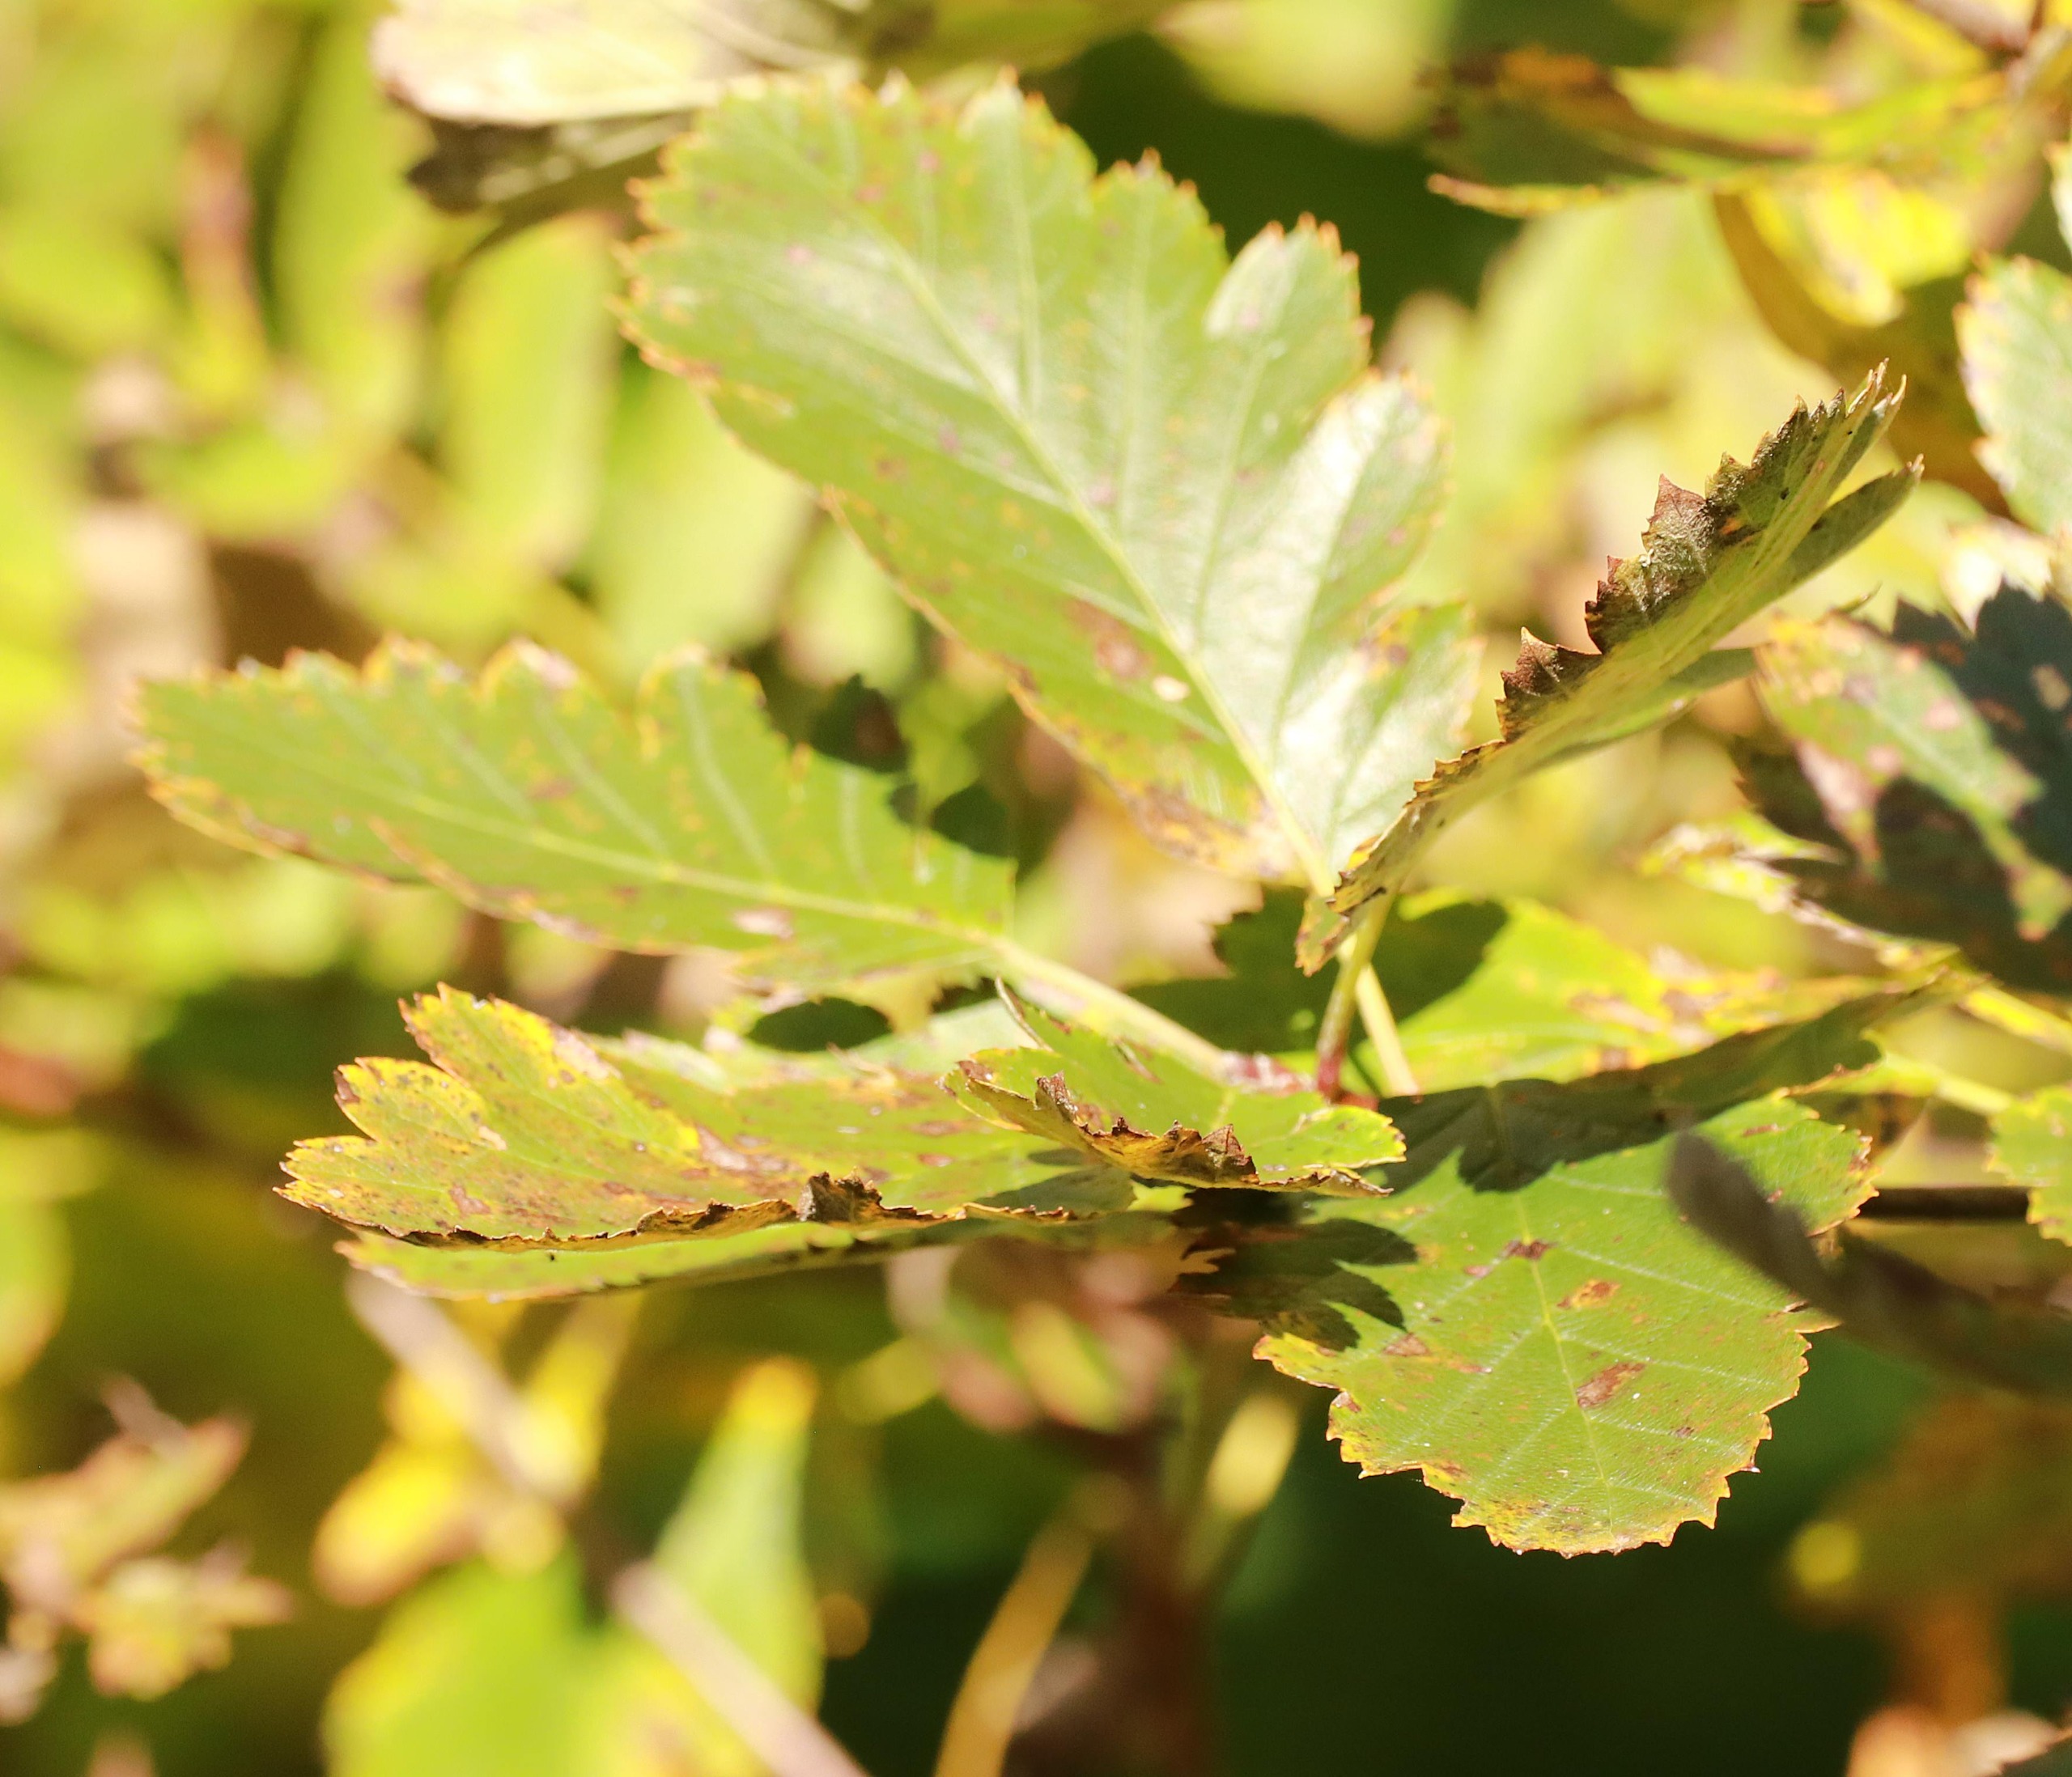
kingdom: Plantae
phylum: Tracheophyta
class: Magnoliopsida
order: Rosales
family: Rosaceae
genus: Scandosorbus
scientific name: Scandosorbus intermedia
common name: Selje-røn
